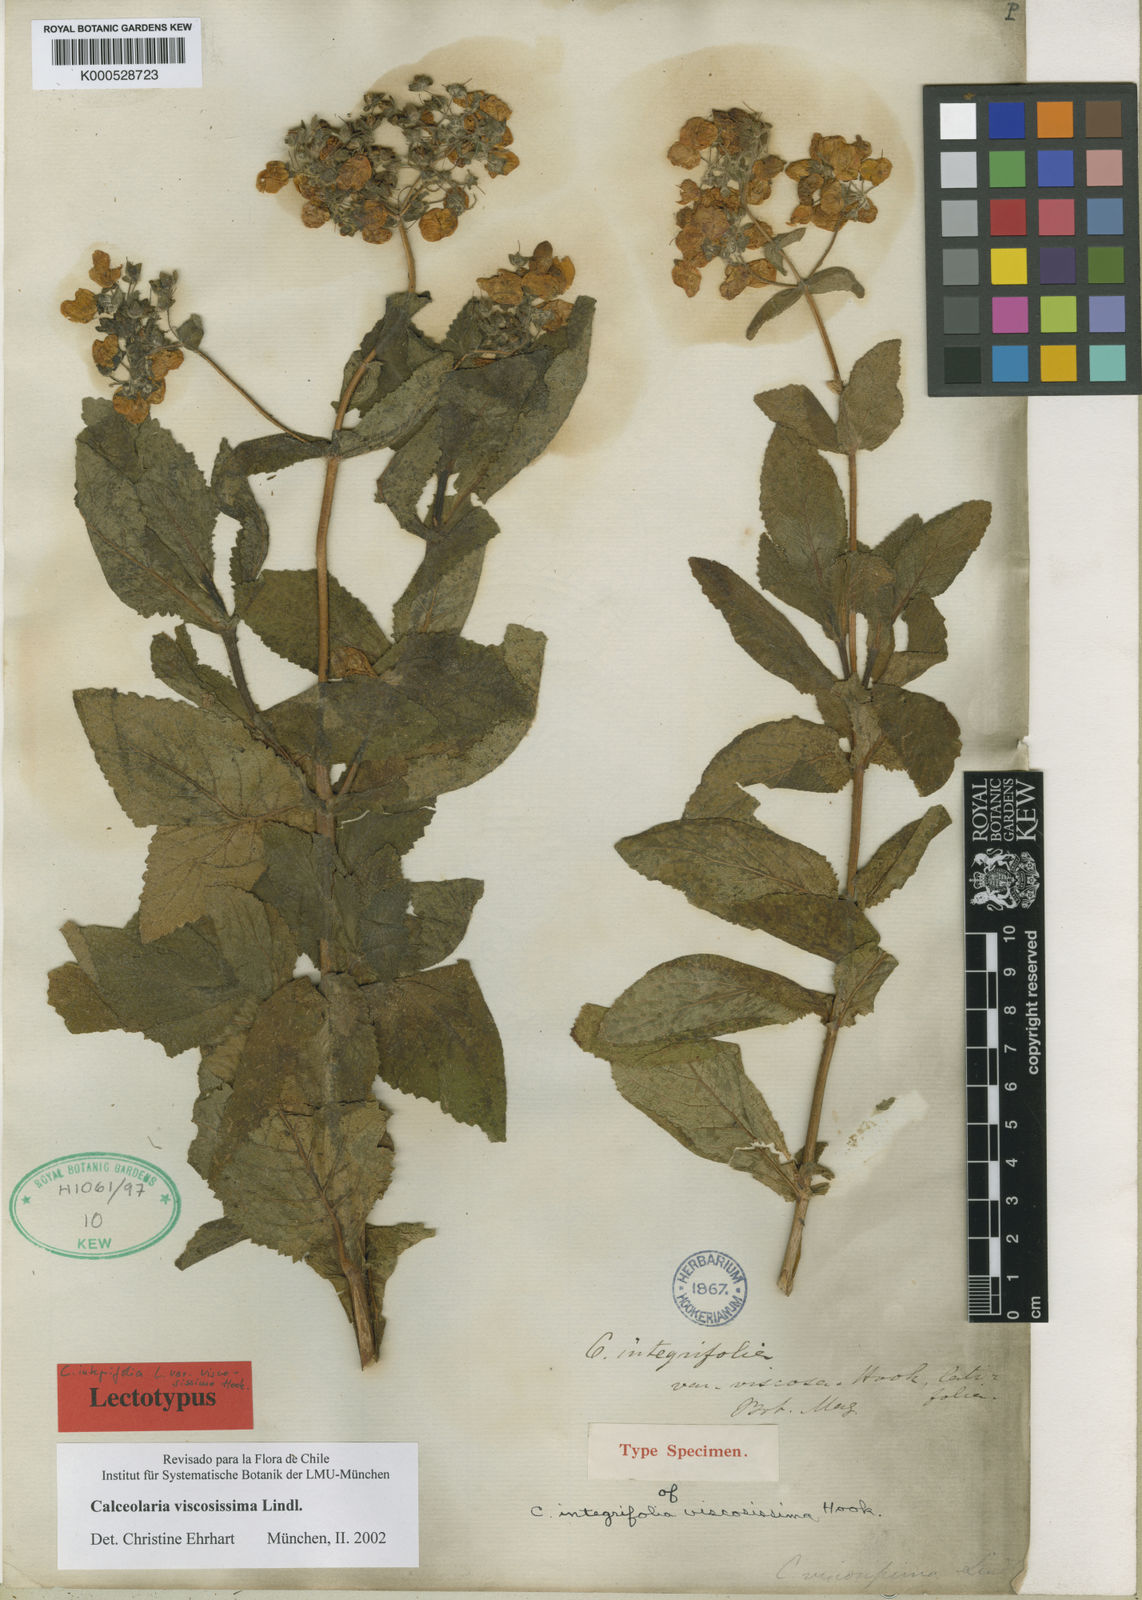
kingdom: Plantae
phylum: Tracheophyta
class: Magnoliopsida
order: Lamiales
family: Calceolariaceae
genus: Calceolaria
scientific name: Calceolaria viscosissima
